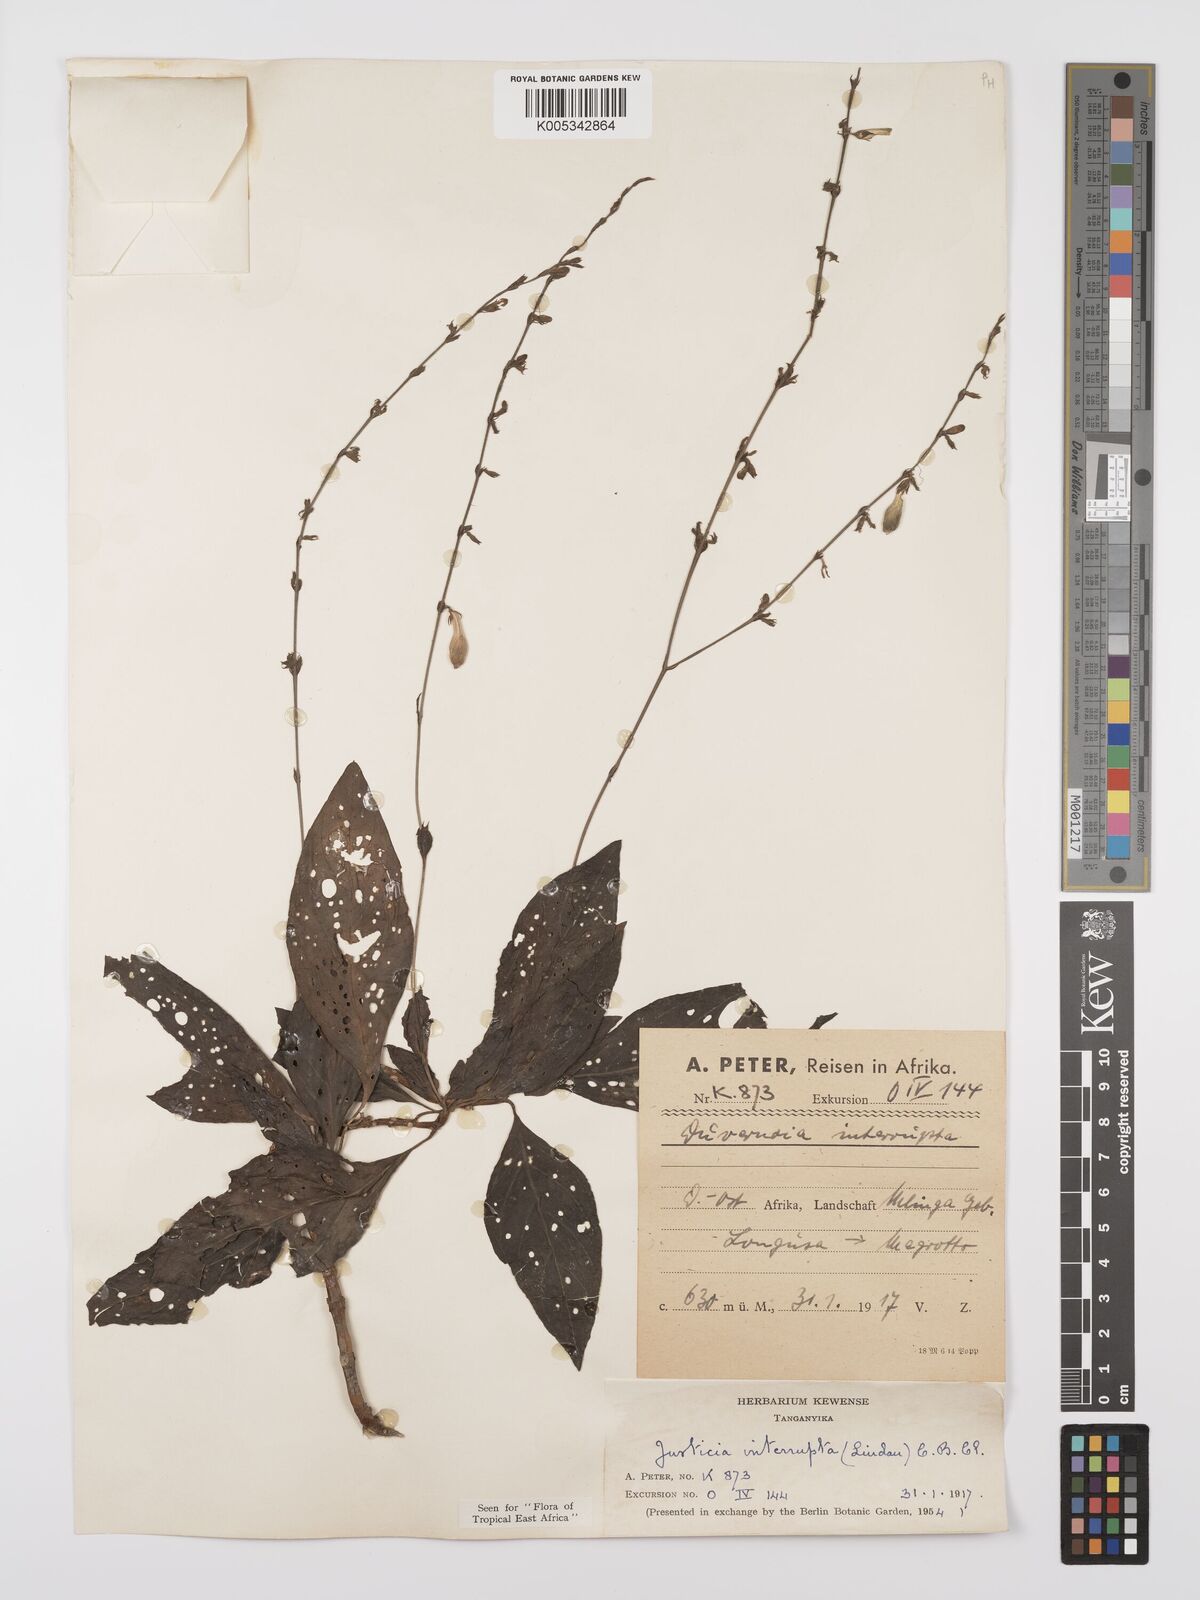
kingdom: Plantae
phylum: Tracheophyta
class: Magnoliopsida
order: Lamiales
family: Acanthaceae
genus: Justicia
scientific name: Justicia plectranthoides
